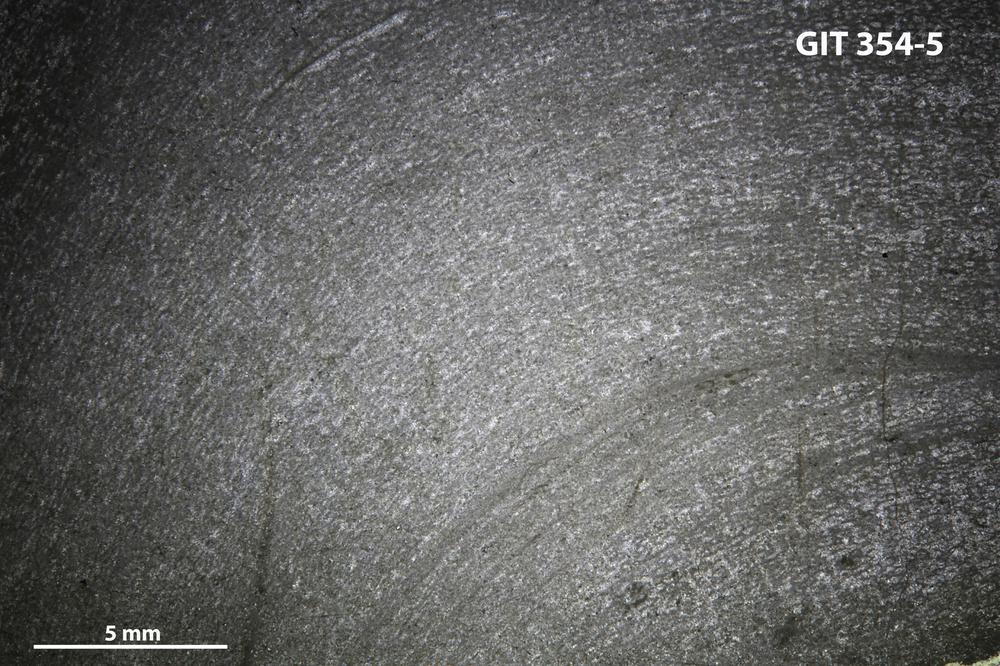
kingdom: Animalia
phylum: Porifera
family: Stromatoceriidae
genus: Cystistroma
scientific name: Cystistroma
